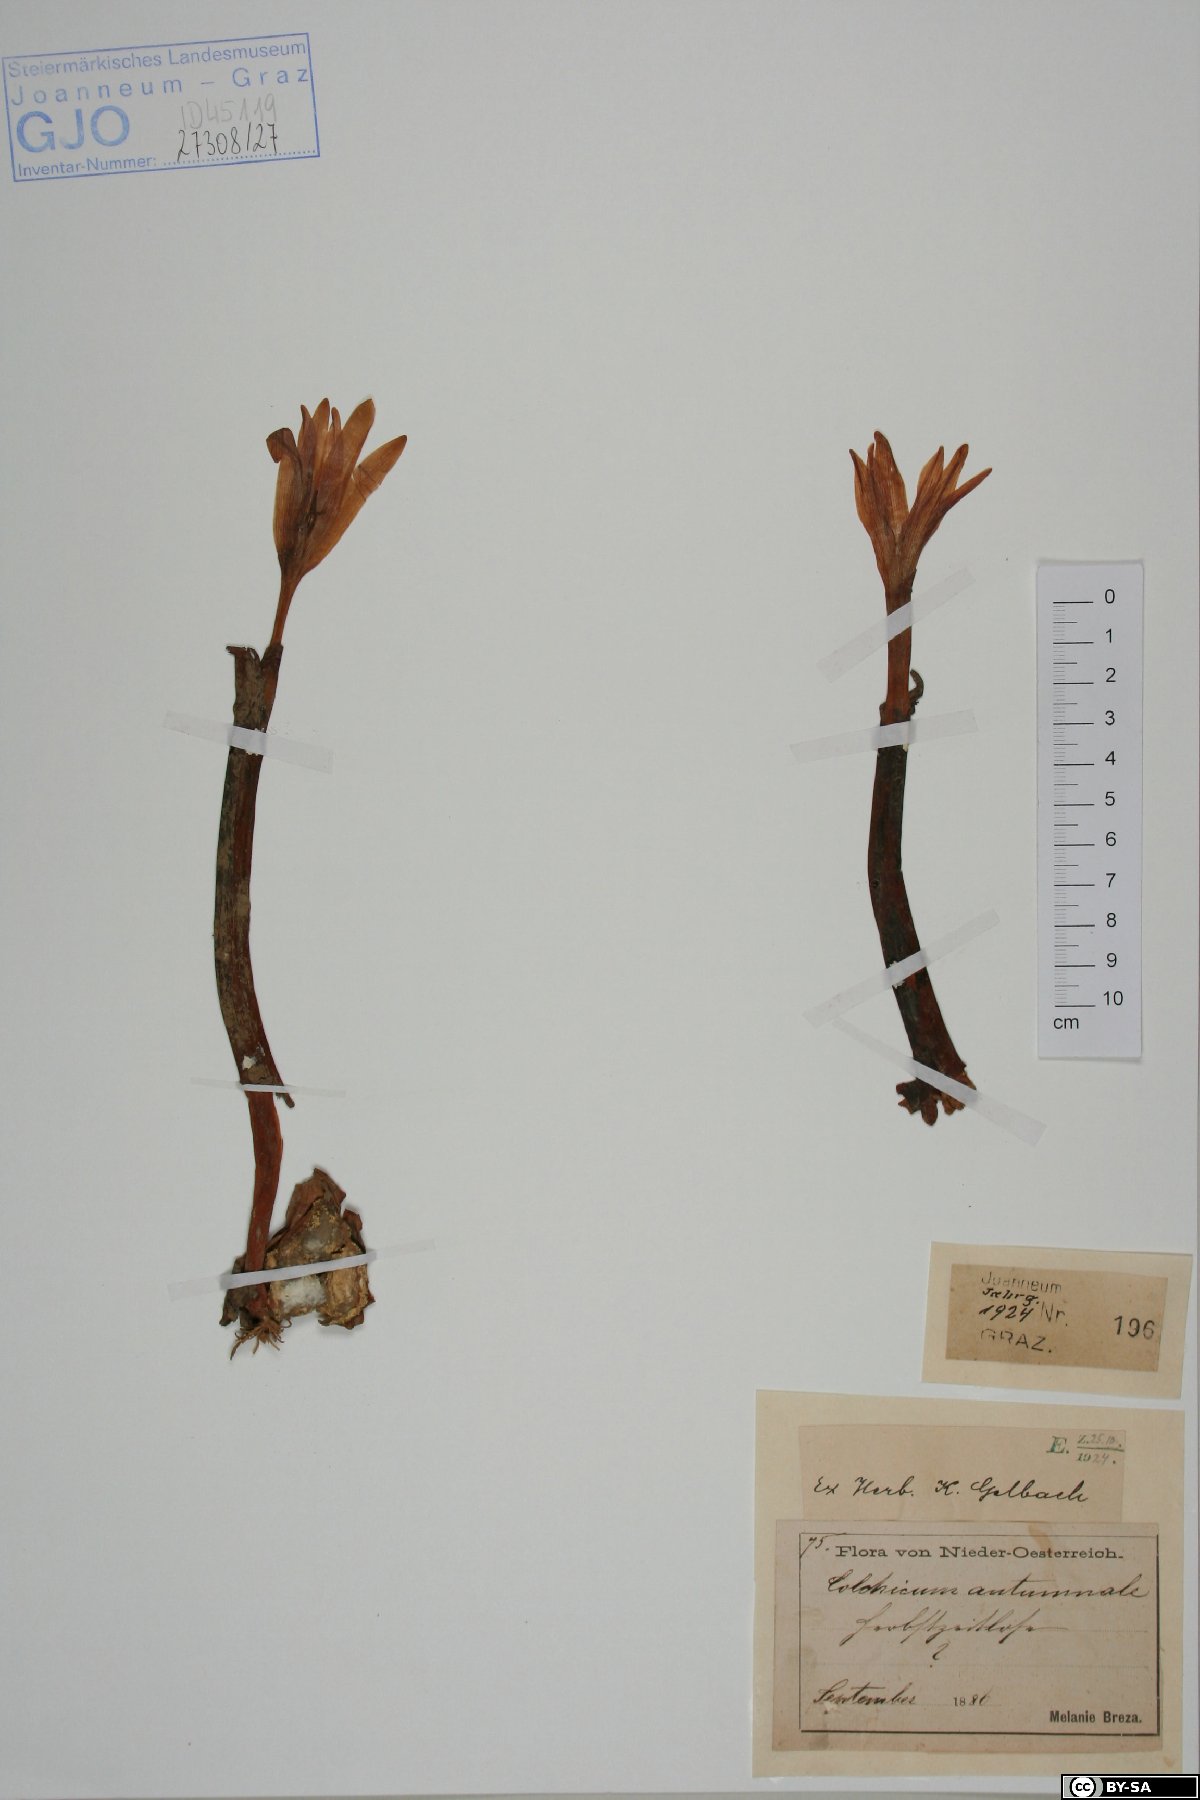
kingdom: Plantae
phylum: Tracheophyta
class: Liliopsida
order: Liliales
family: Colchicaceae
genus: Colchicum
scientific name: Colchicum autumnale
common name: Autumn crocus
